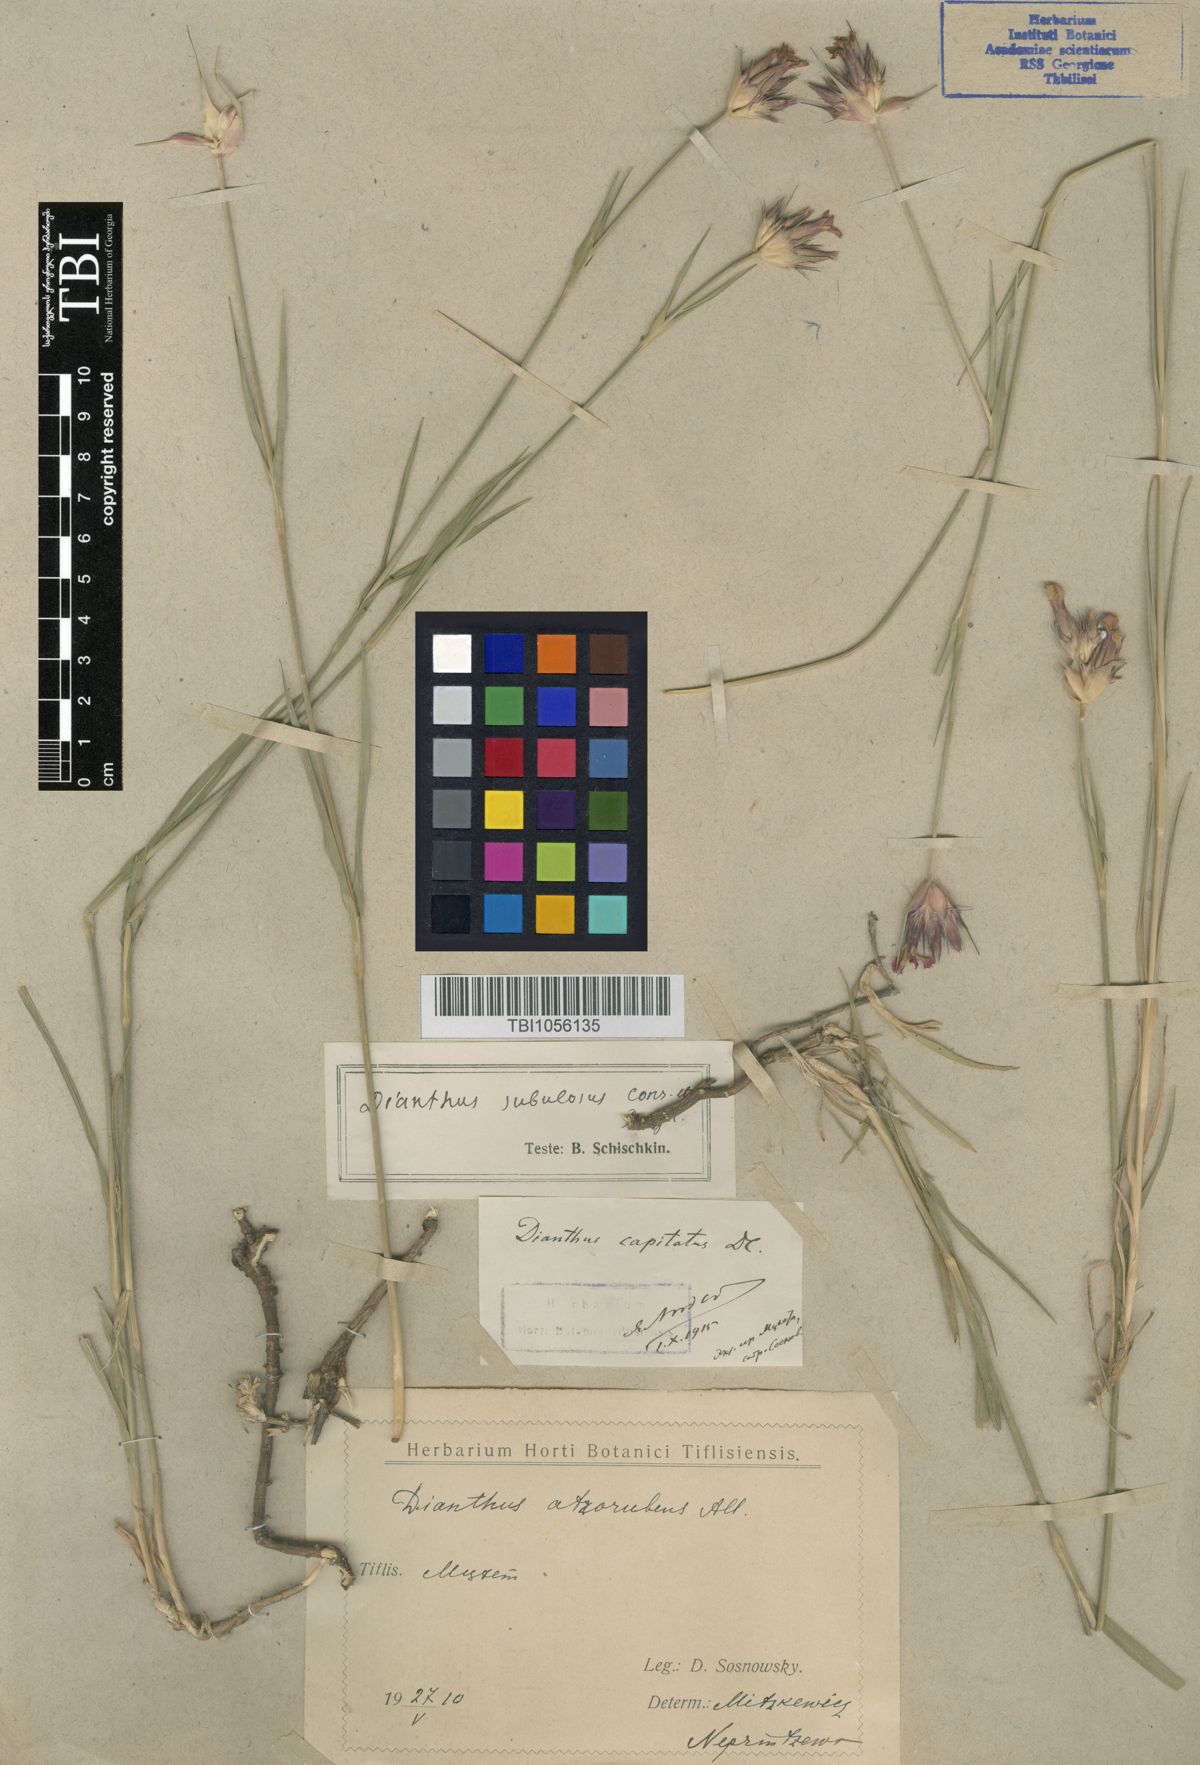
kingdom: Plantae
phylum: Tracheophyta
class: Magnoliopsida
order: Caryophyllales
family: Caryophyllaceae
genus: Dianthus
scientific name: Dianthus subulosus
